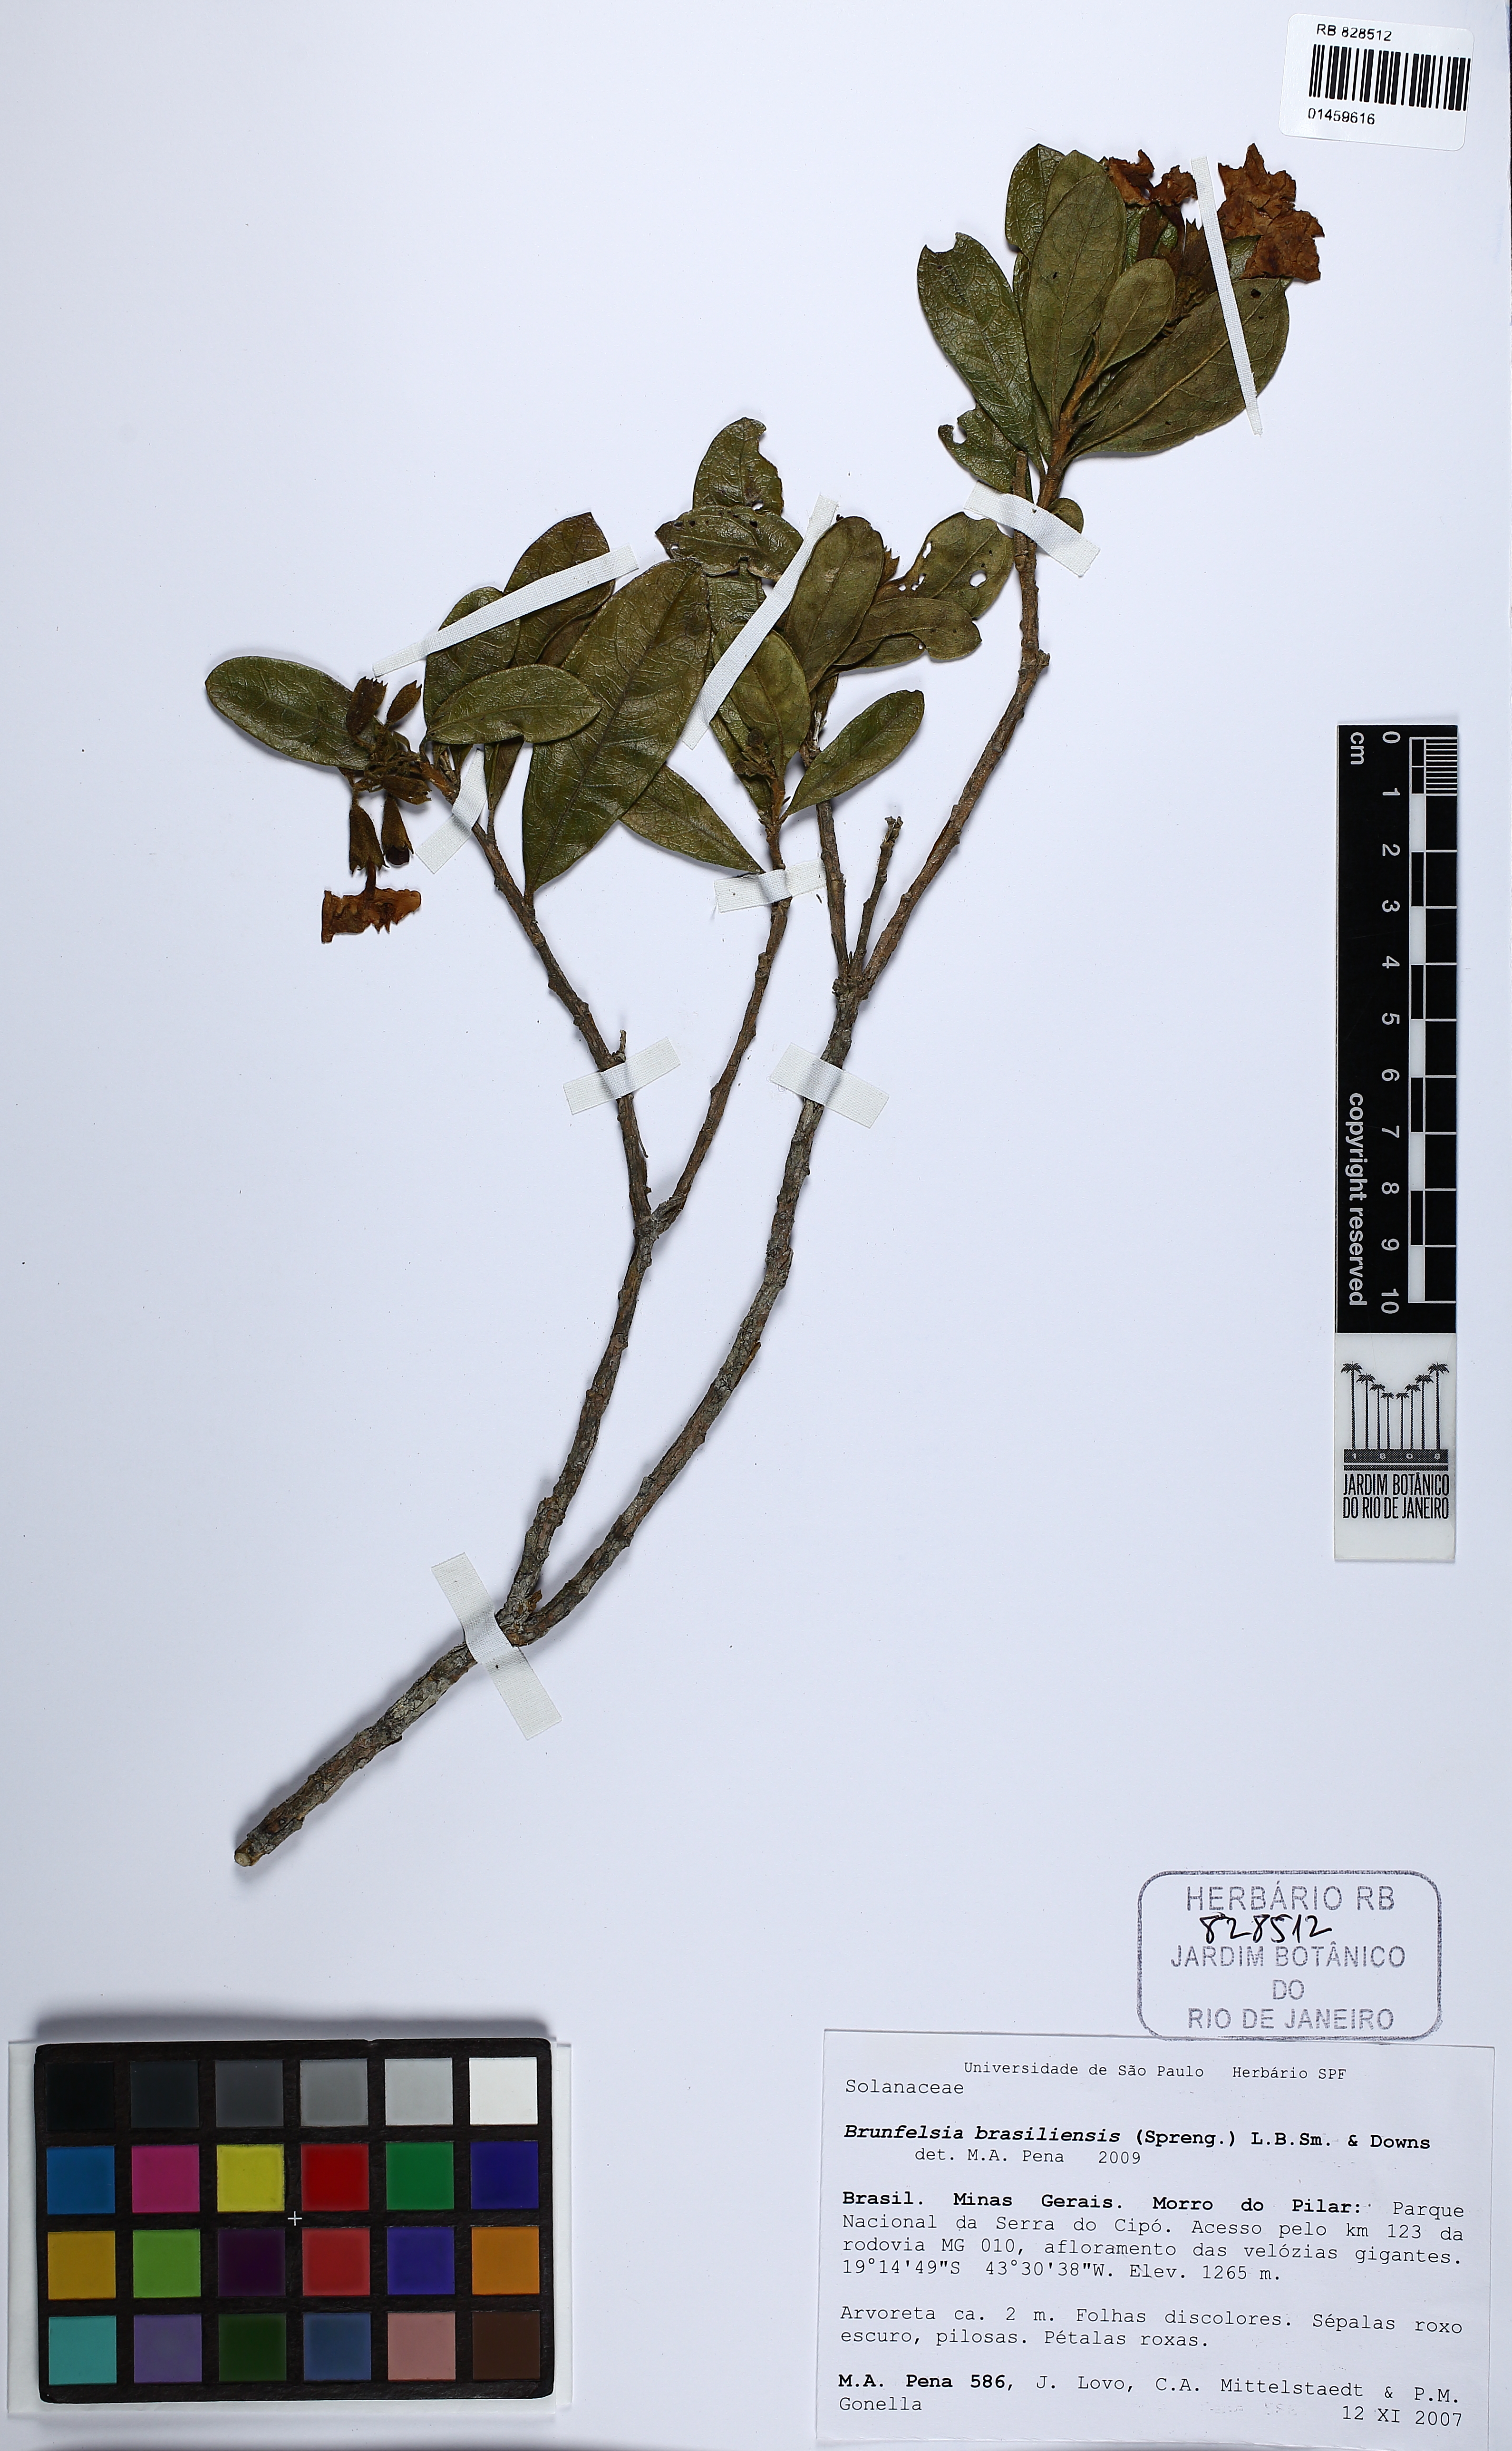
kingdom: Plantae
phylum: Tracheophyta
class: Magnoliopsida
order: Solanales
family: Solanaceae
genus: Brunfelsia
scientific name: Brunfelsia brasiliensis
